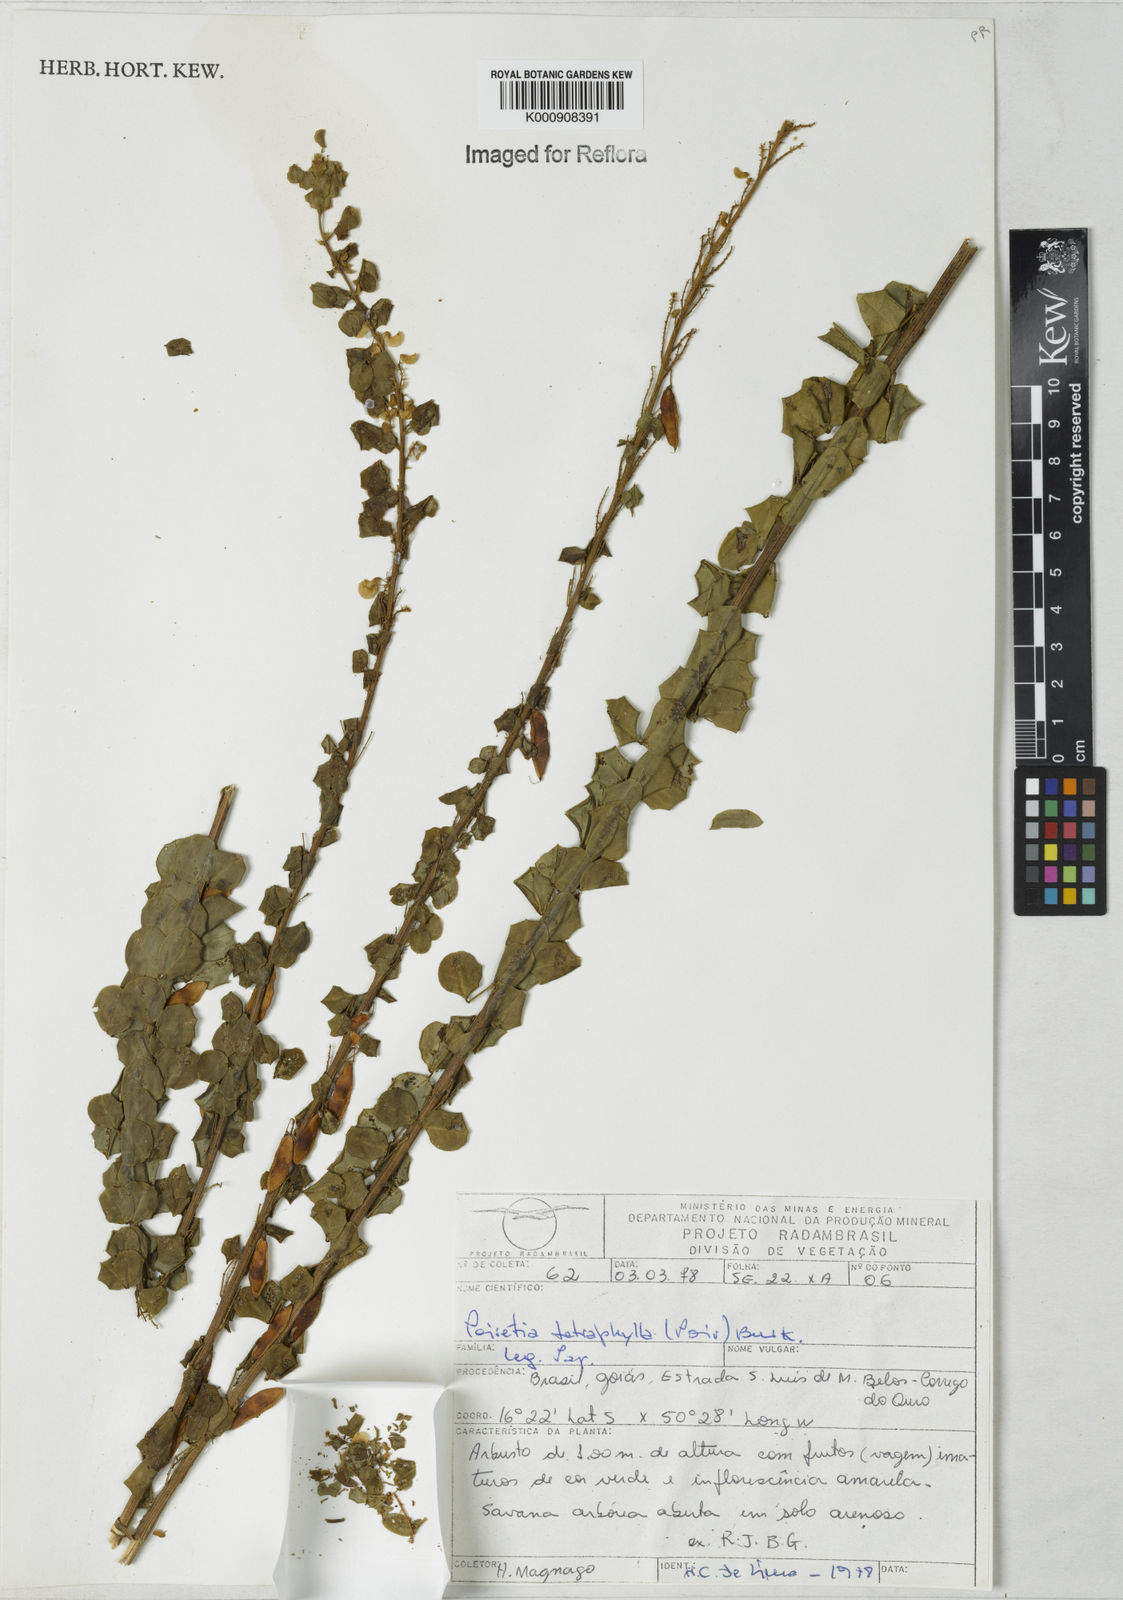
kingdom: Plantae
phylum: Tracheophyta
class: Magnoliopsida
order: Fabales
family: Fabaceae
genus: Poiretia
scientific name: Poiretia tetraphylla
